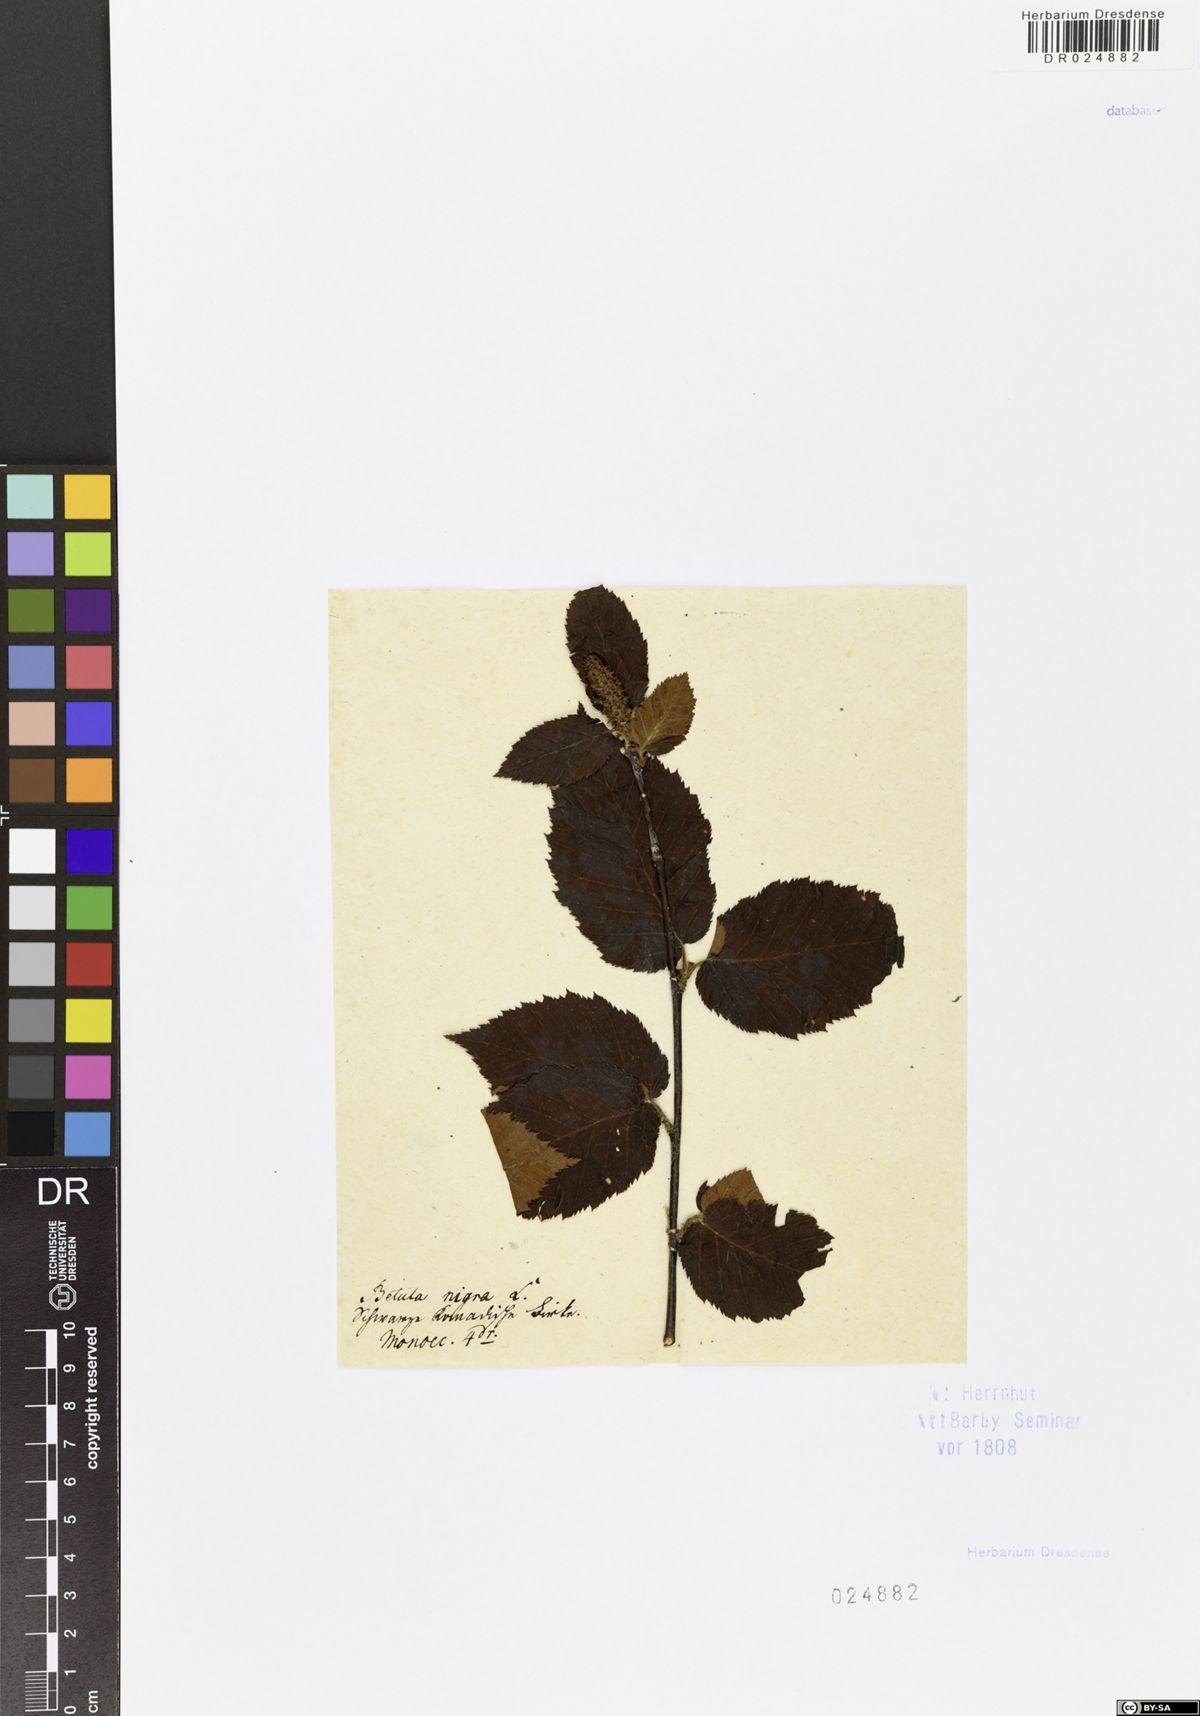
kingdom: Plantae
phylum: Tracheophyta
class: Magnoliopsida
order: Fagales
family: Betulaceae
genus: Betula
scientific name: Betula nigra
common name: Black birch
